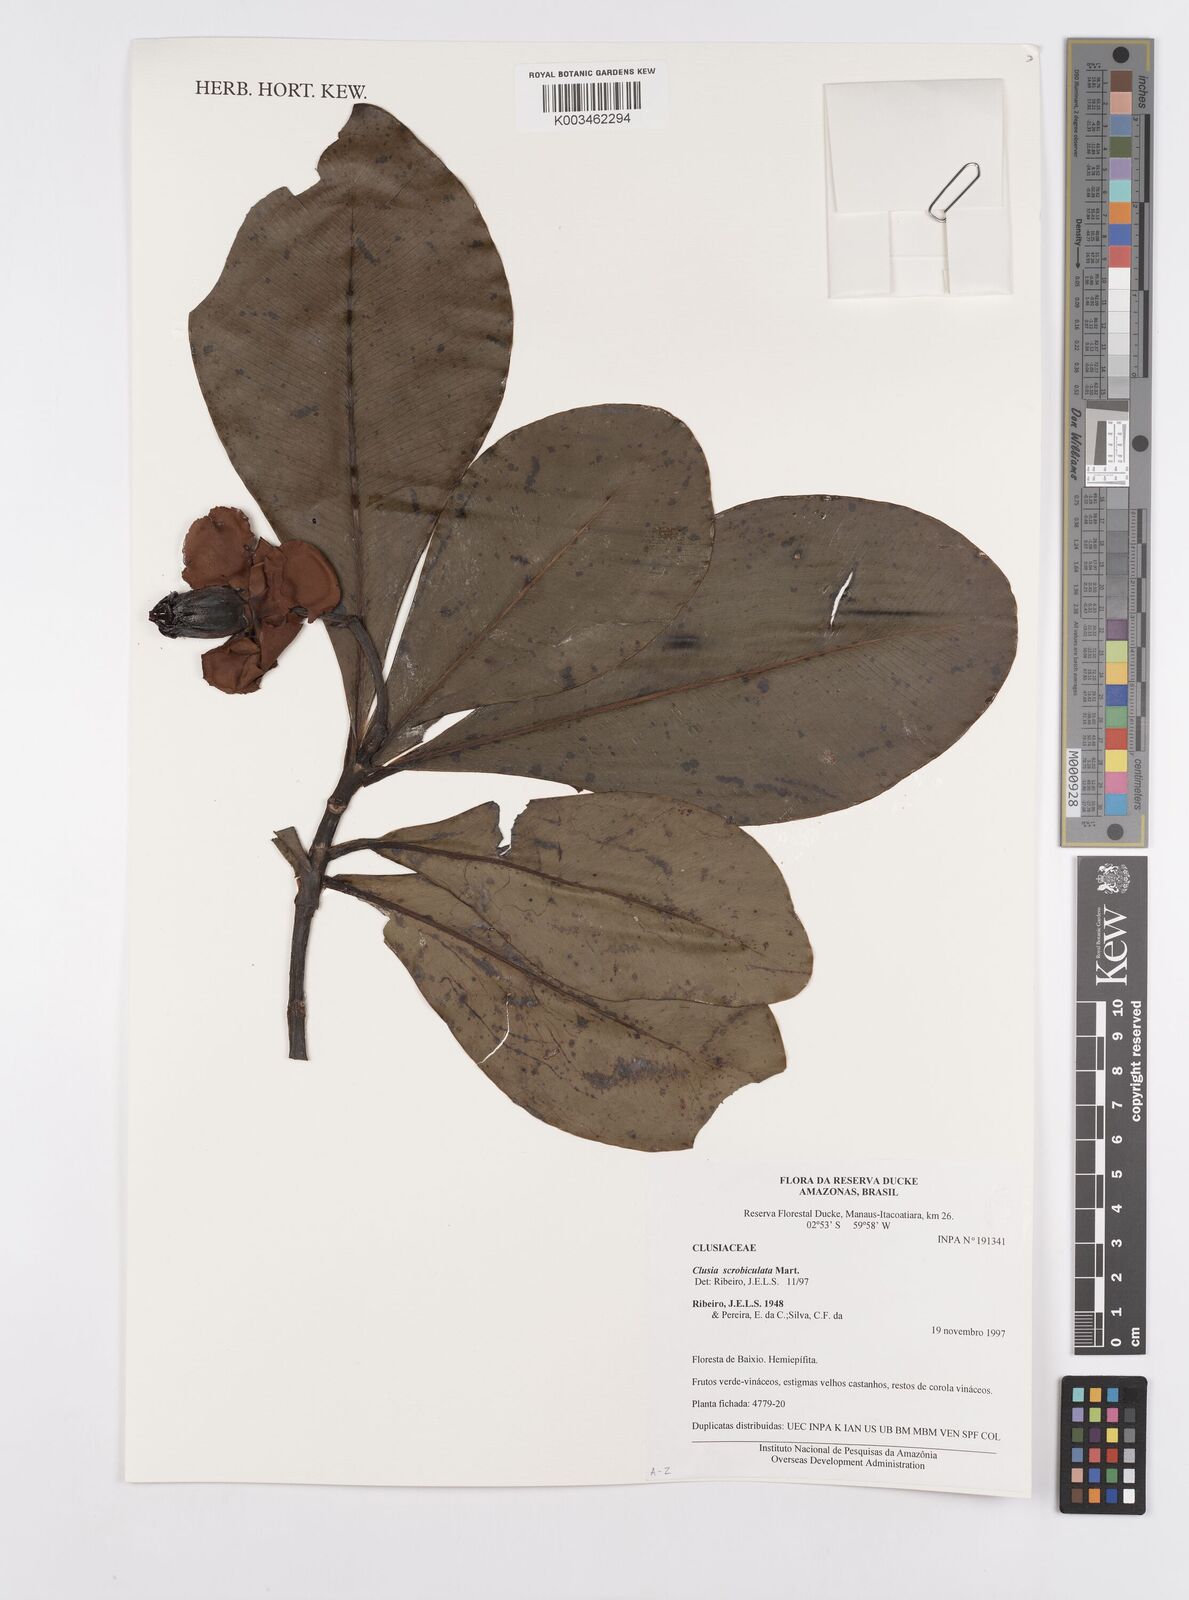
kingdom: Plantae
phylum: Tracheophyta
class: Magnoliopsida
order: Malpighiales
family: Clusiaceae
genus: Clusia
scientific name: Clusia scrobiculata
